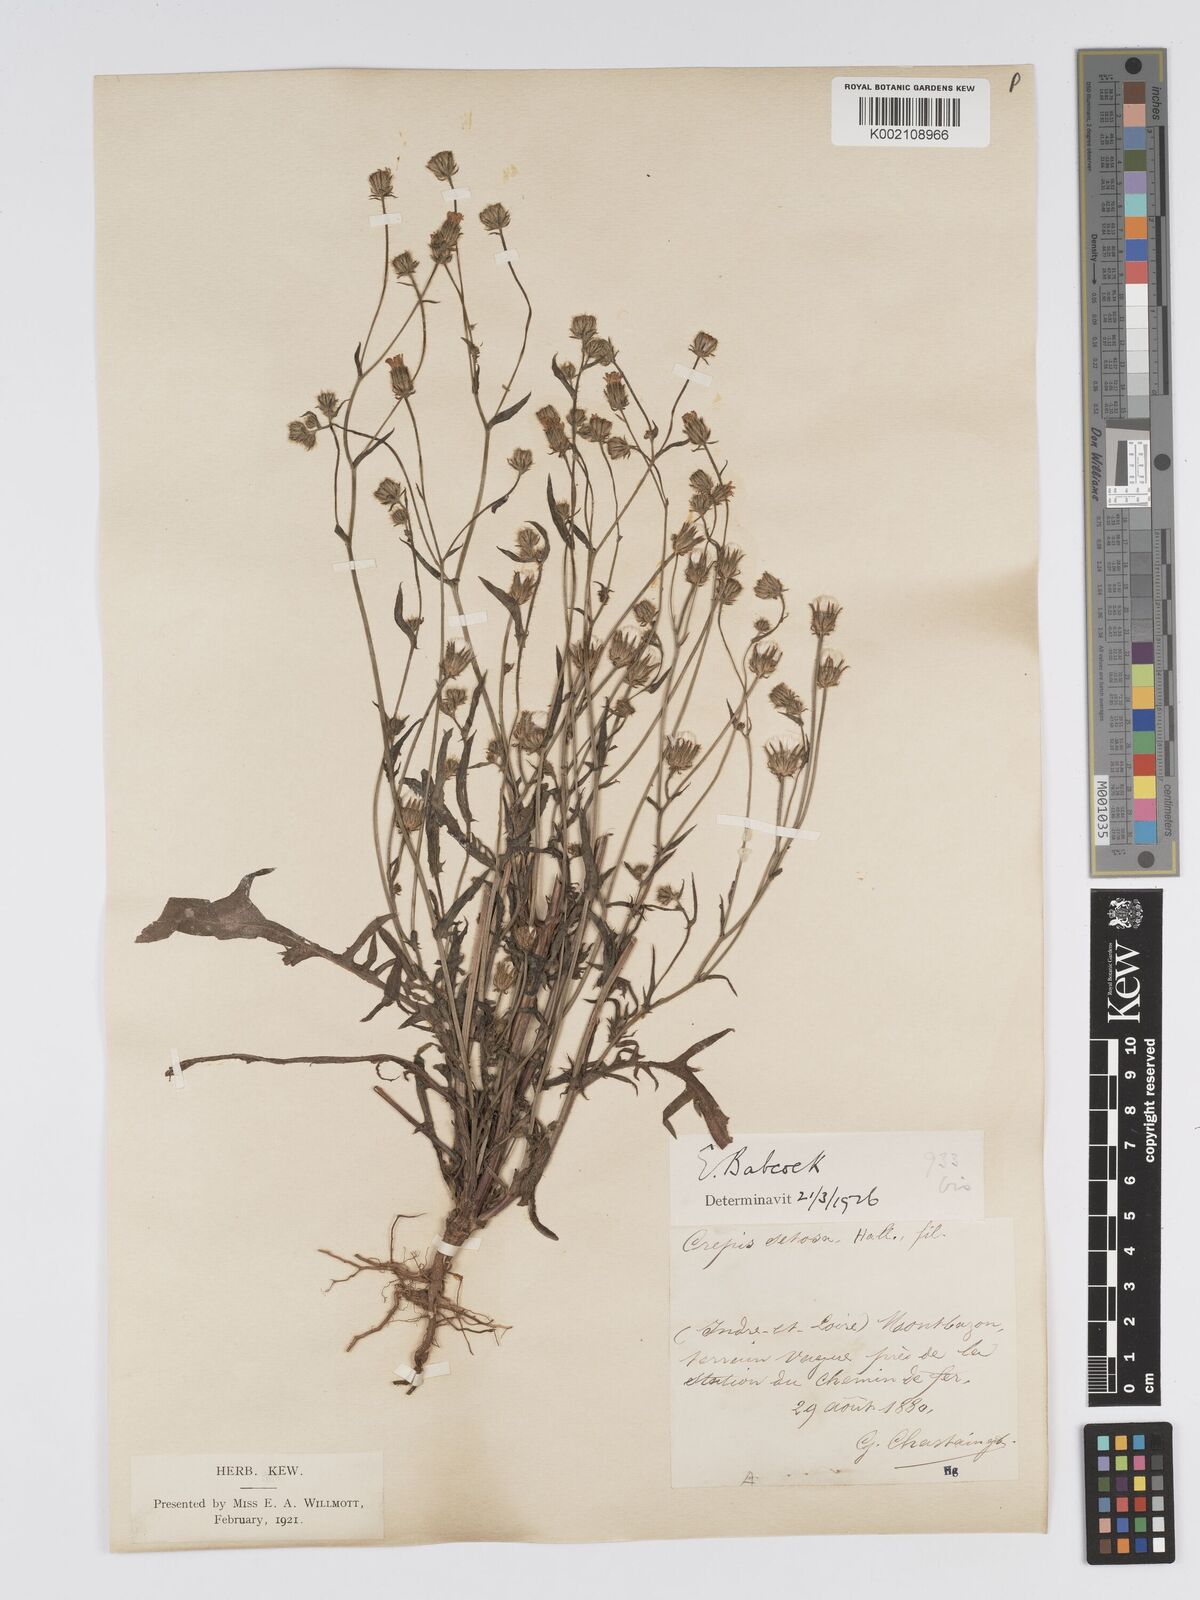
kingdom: Plantae
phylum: Tracheophyta
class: Magnoliopsida
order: Asterales
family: Asteraceae
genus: Crepis
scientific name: Crepis setosa
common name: Bristly hawk's-beard
